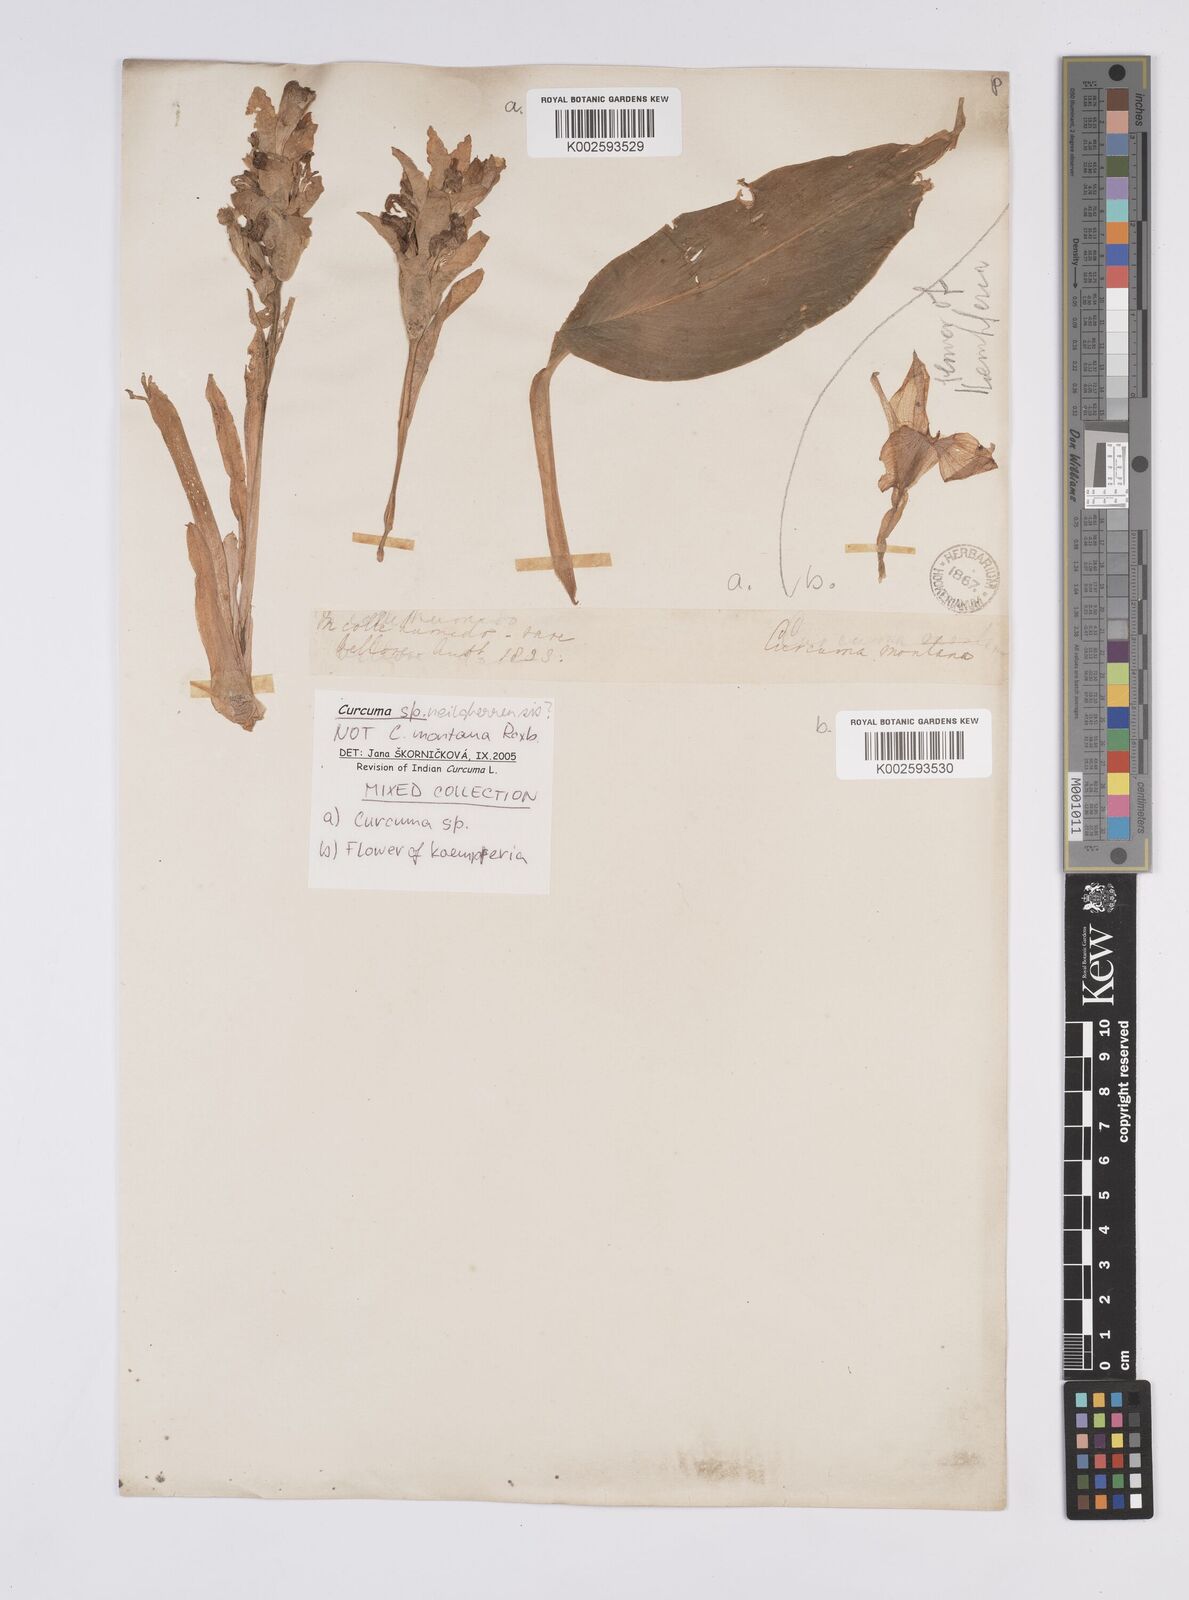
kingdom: Plantae
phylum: Tracheophyta
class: Liliopsida
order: Zingiberales
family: Zingiberaceae
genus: Curcuma
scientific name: Curcuma neilgherrensis
